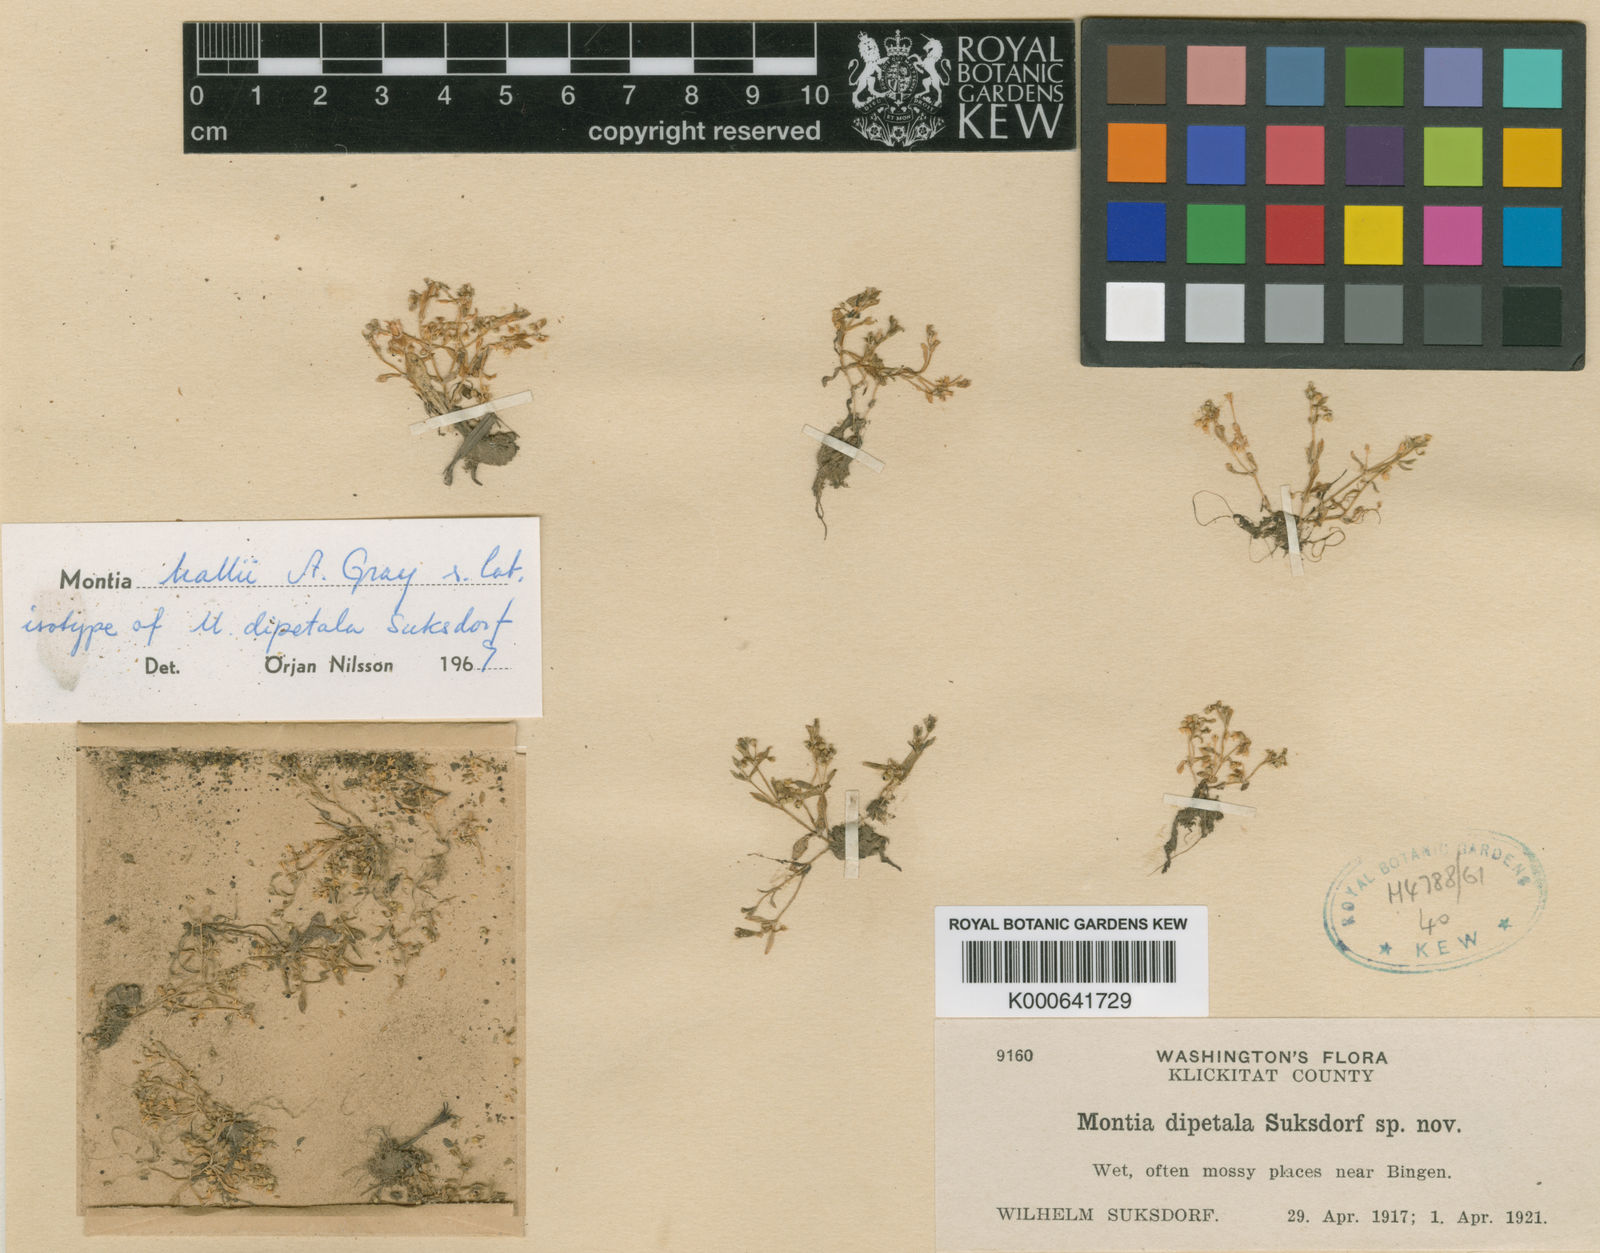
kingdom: Plantae
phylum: Tracheophyta
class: Magnoliopsida
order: Caryophyllales
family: Montiaceae
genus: Montia
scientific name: Montia fontana
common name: Blinks
